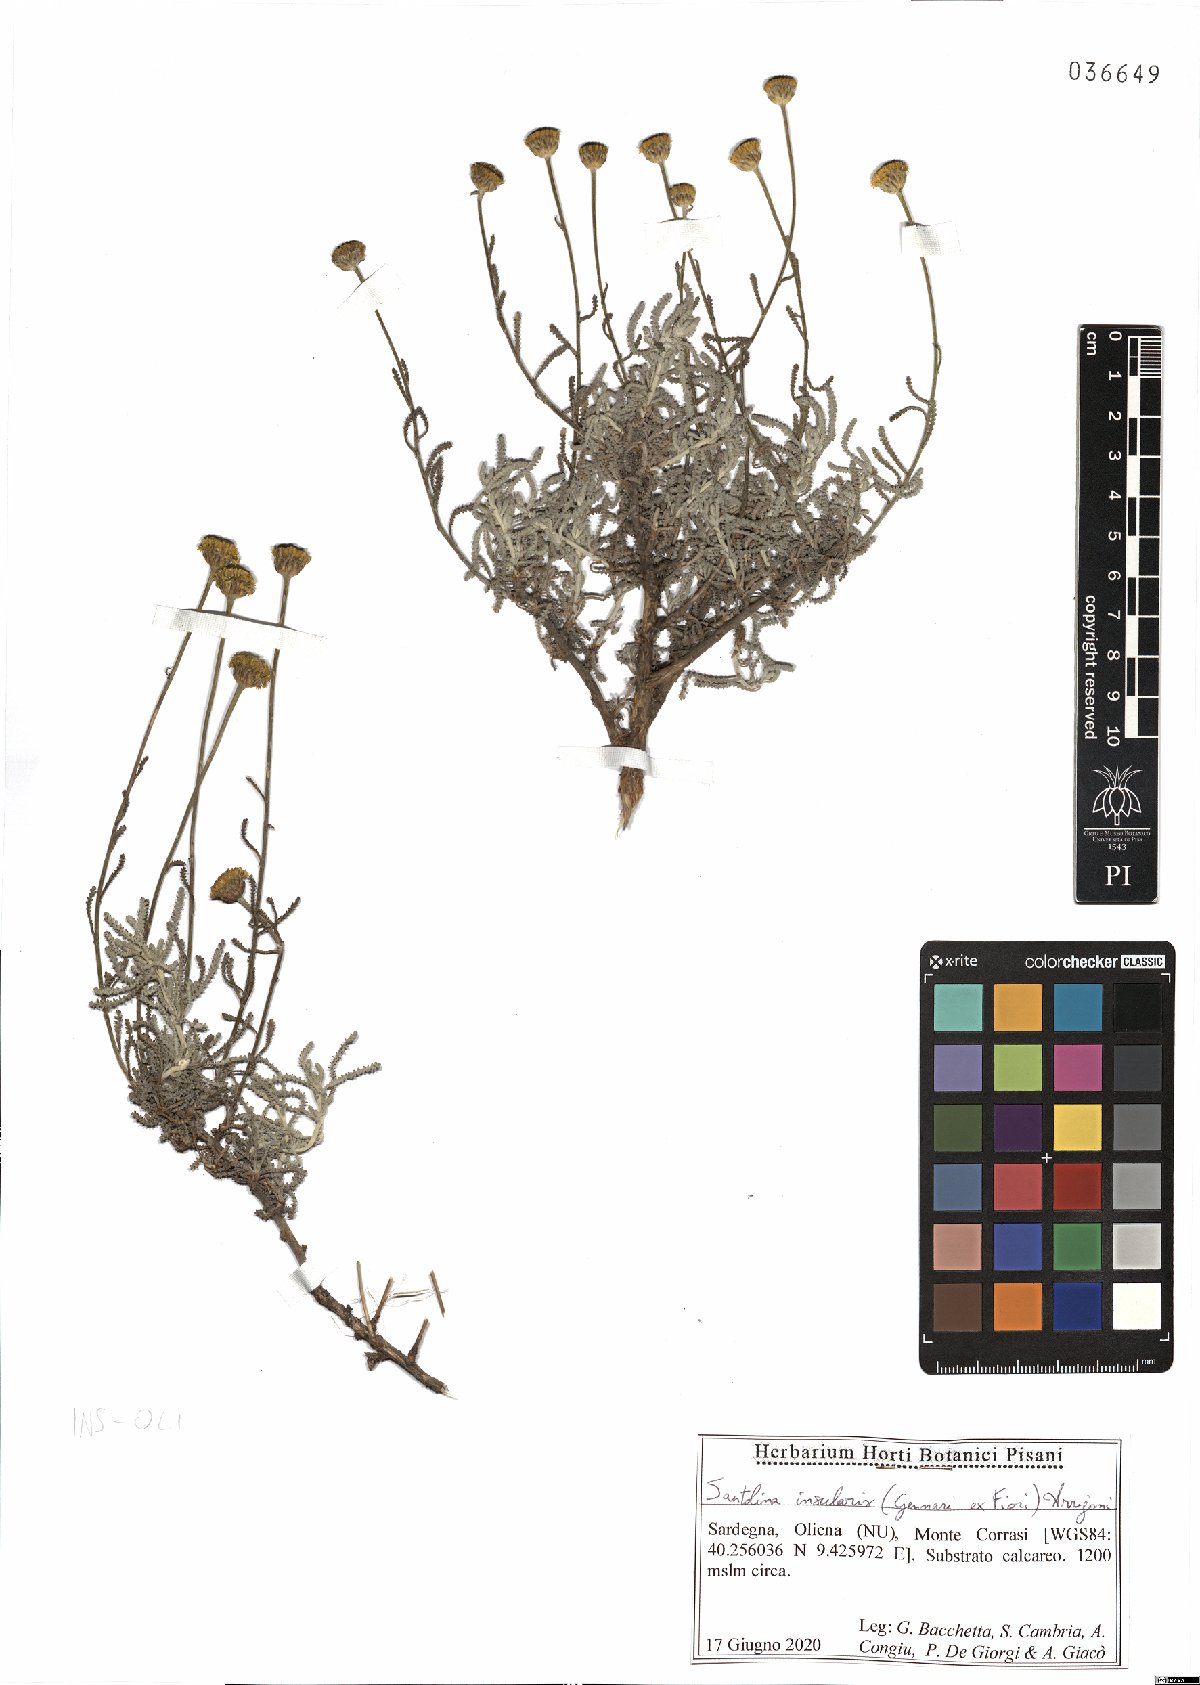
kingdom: Plantae
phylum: Tracheophyta
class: Magnoliopsida
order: Asterales
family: Asteraceae
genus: Santolina
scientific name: Santolina insularis
